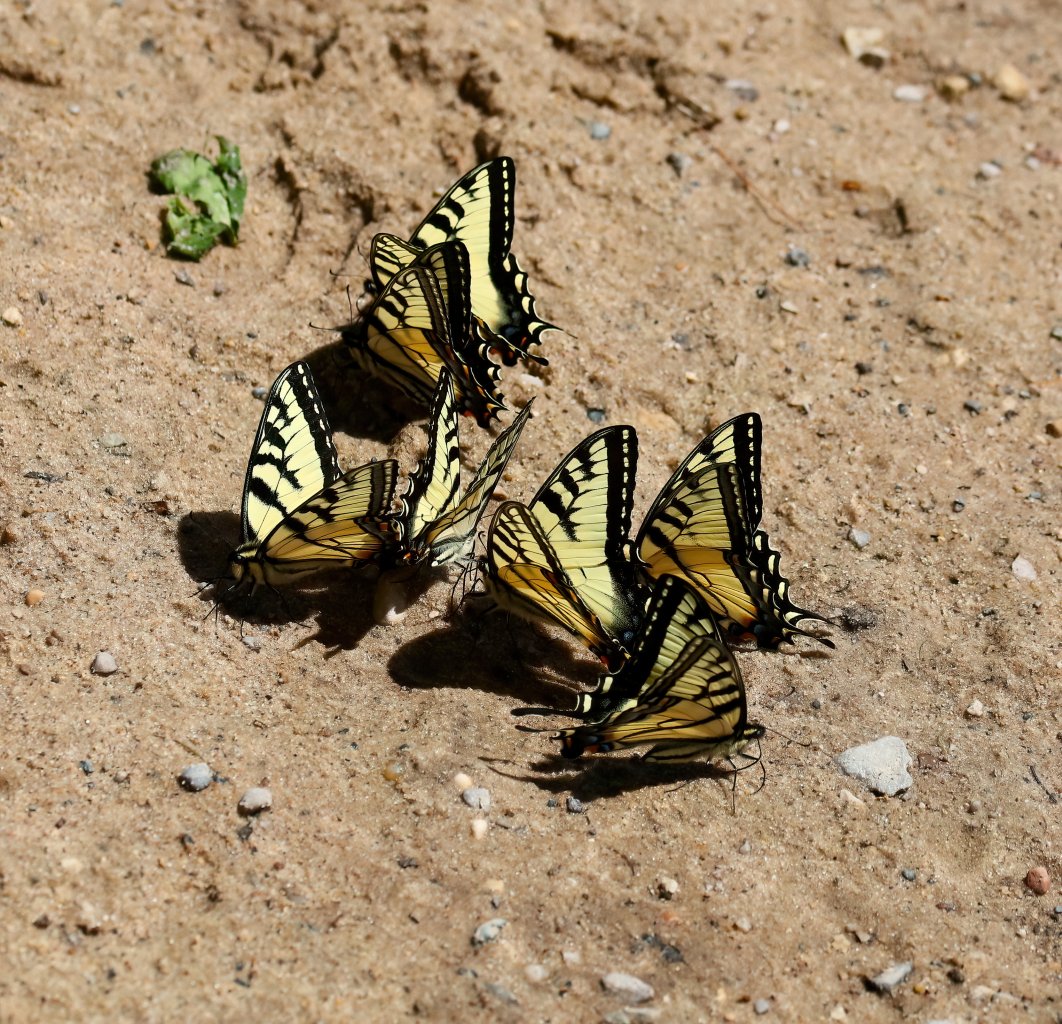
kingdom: Animalia
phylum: Arthropoda
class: Insecta
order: Lepidoptera
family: Papilionidae
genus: Pterourus
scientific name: Pterourus glaucus
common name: Eastern Tiger Swallowtail
